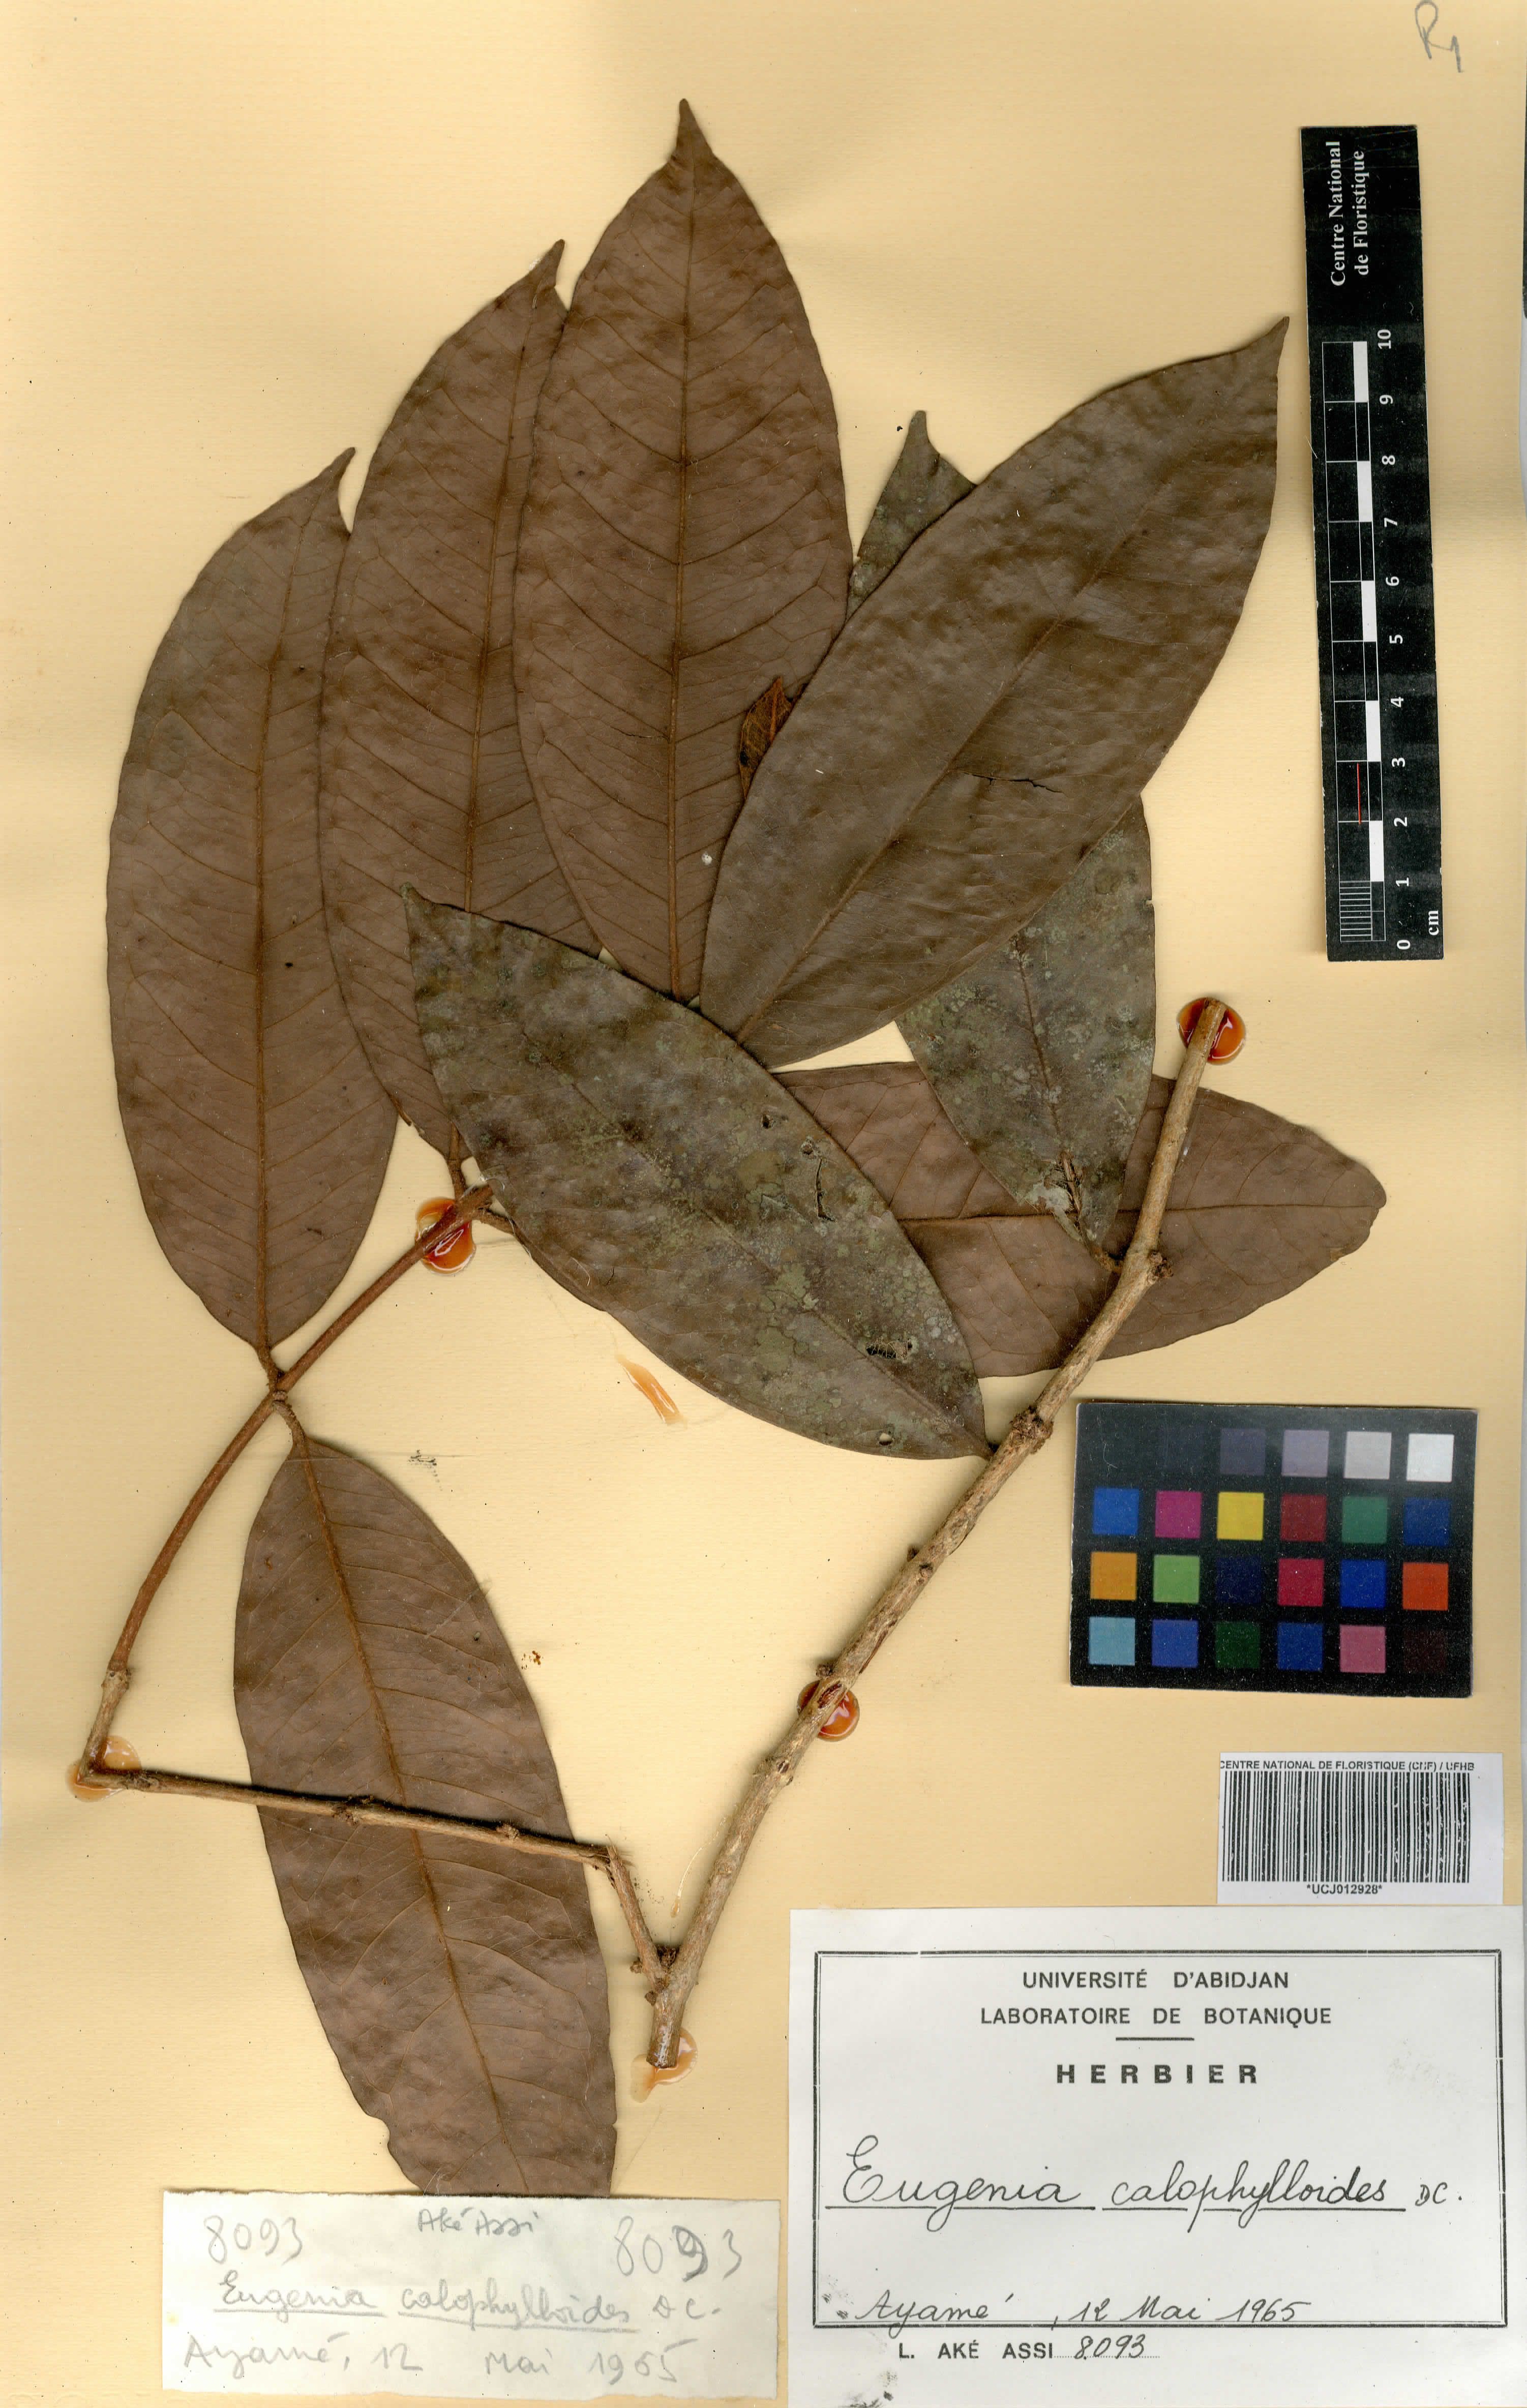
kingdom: Plantae
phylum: Tracheophyta
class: Magnoliopsida
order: Myrtales
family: Myrtaceae
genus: Eugenia
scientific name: Eugenia calophylloides
